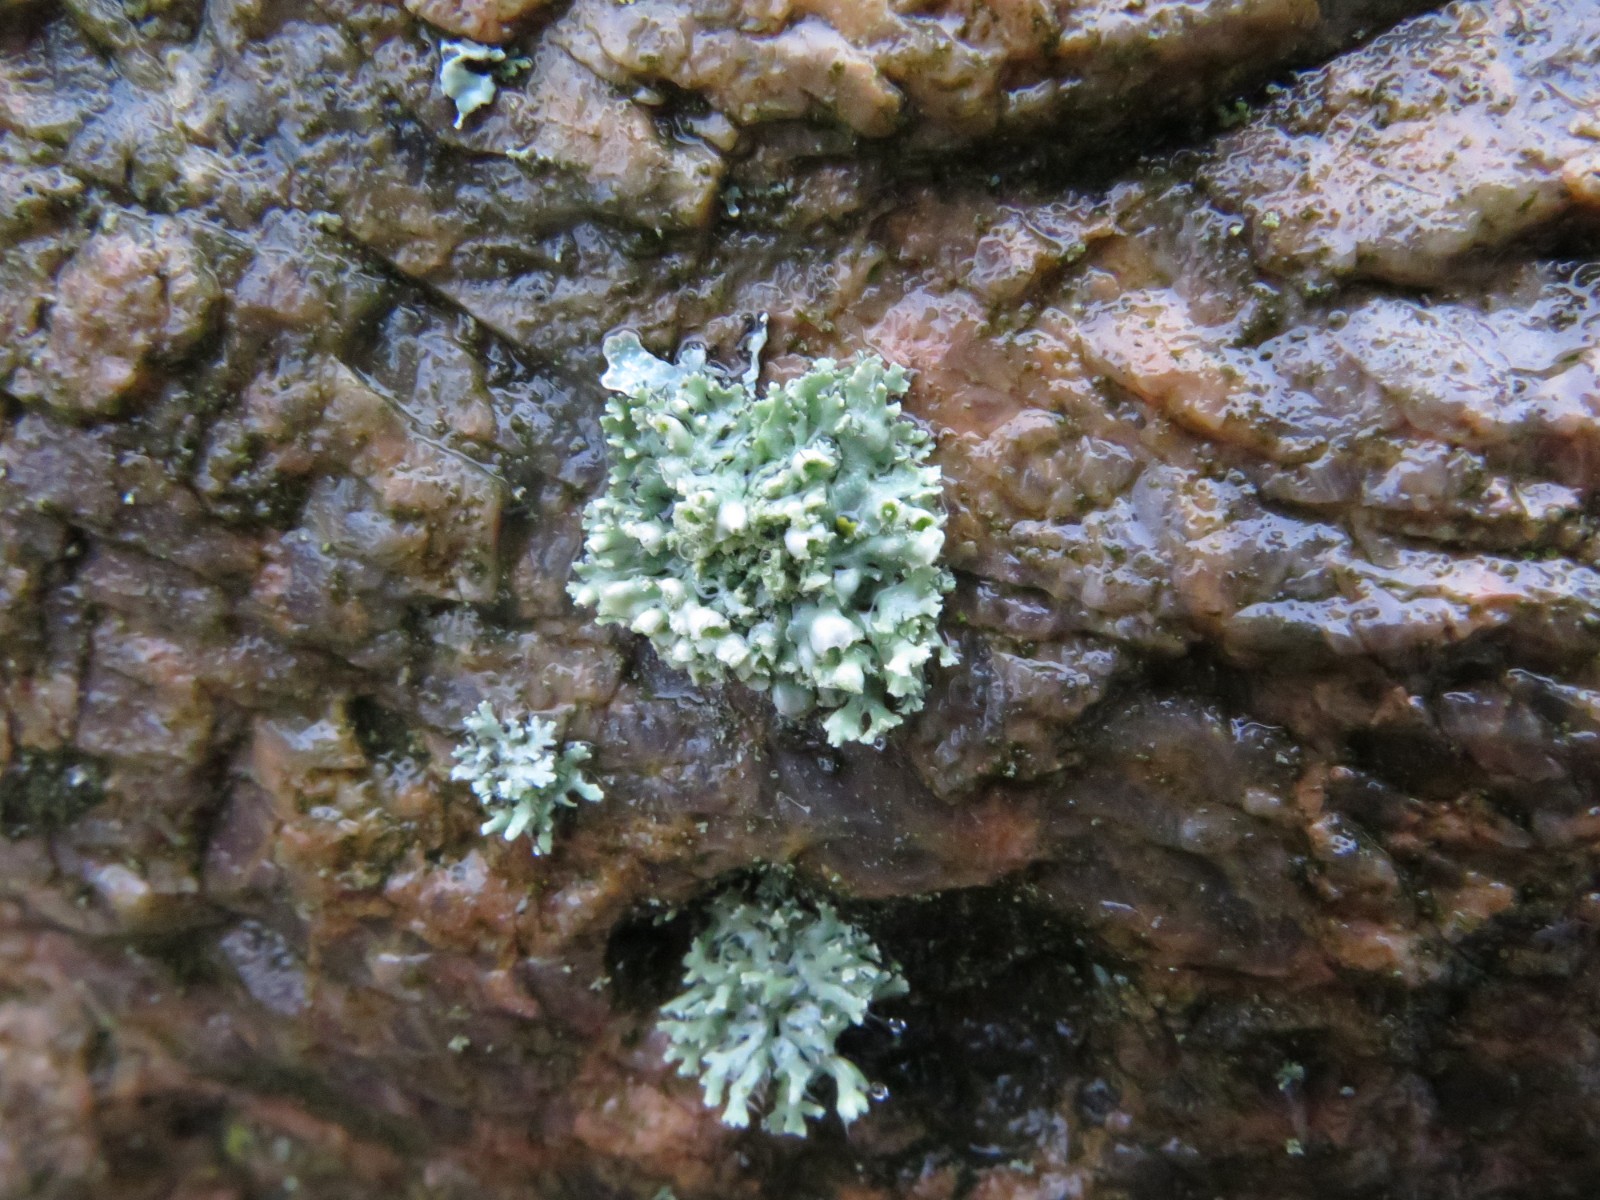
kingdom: Fungi
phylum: Ascomycota
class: Lecanoromycetes
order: Caliciales
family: Physciaceae
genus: Physcia
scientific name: Physcia adscendens
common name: hætte-rosetlav
